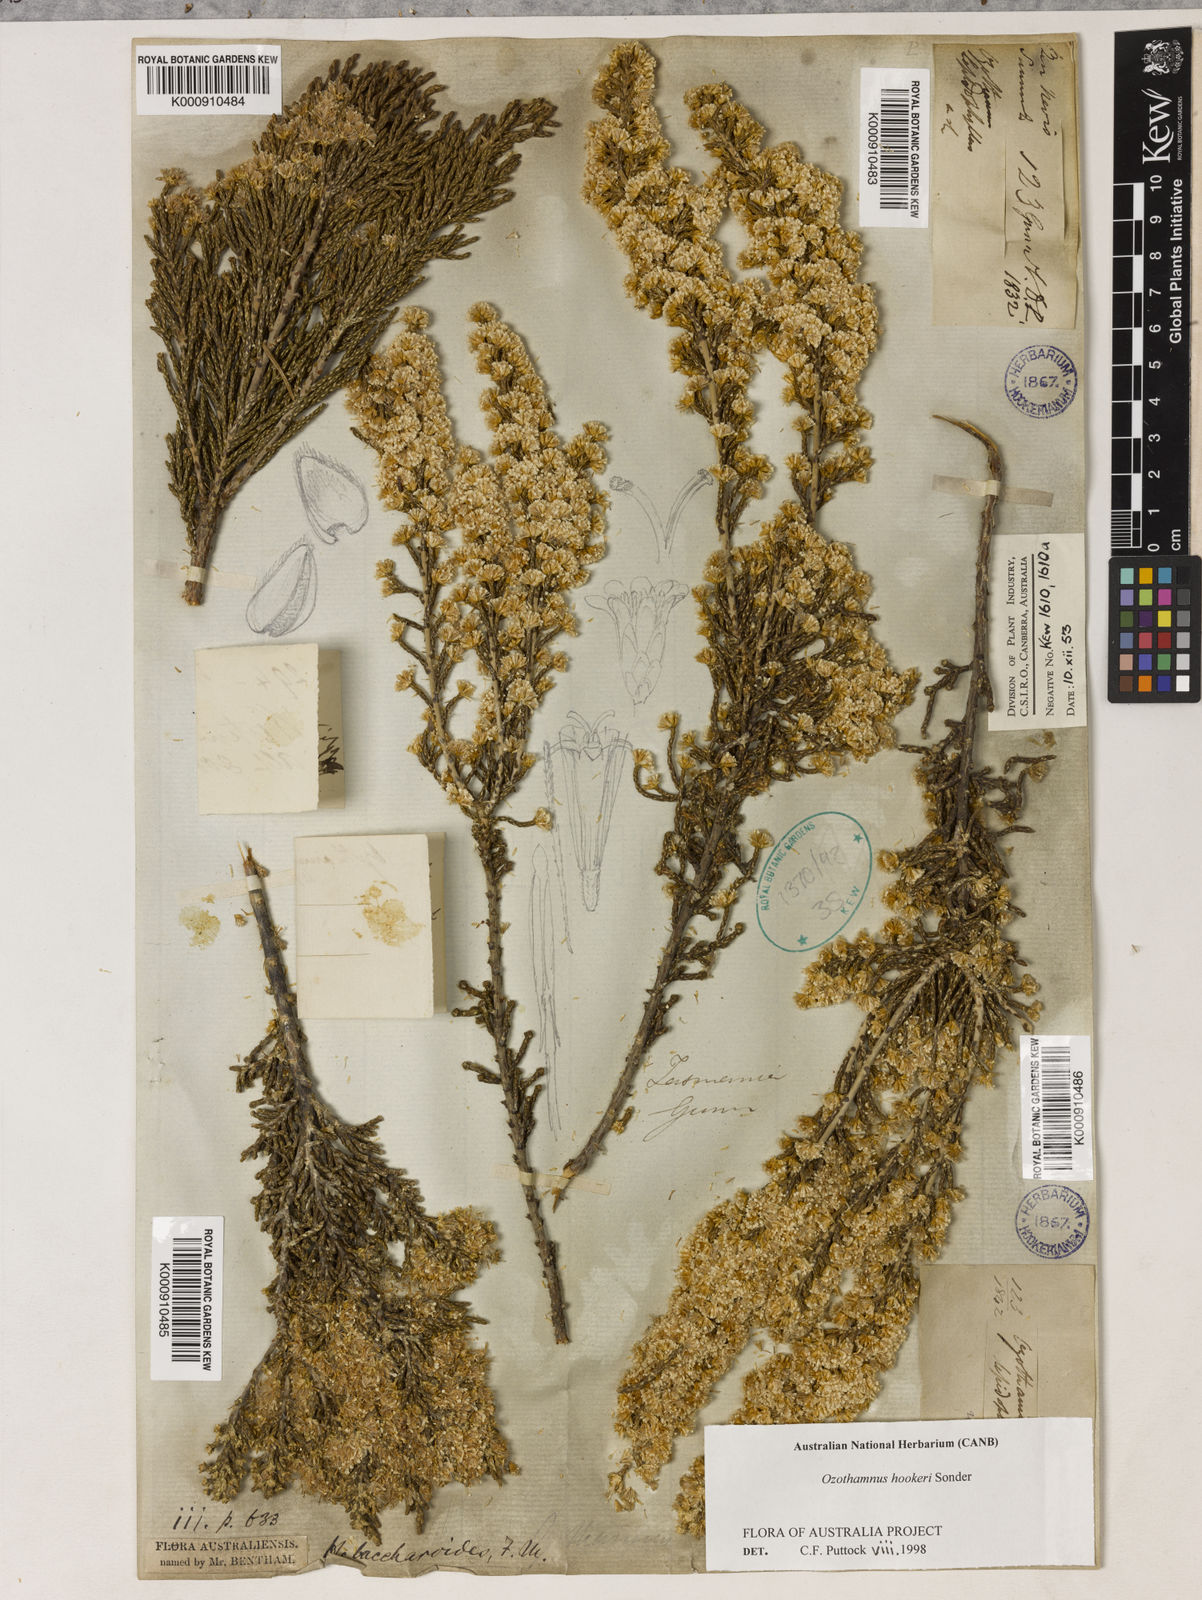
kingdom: Plantae
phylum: Tracheophyta
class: Magnoliopsida
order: Asterales
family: Asteraceae
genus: Ozothamnus
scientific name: Ozothamnus hookeri
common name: Kerosene-bush
